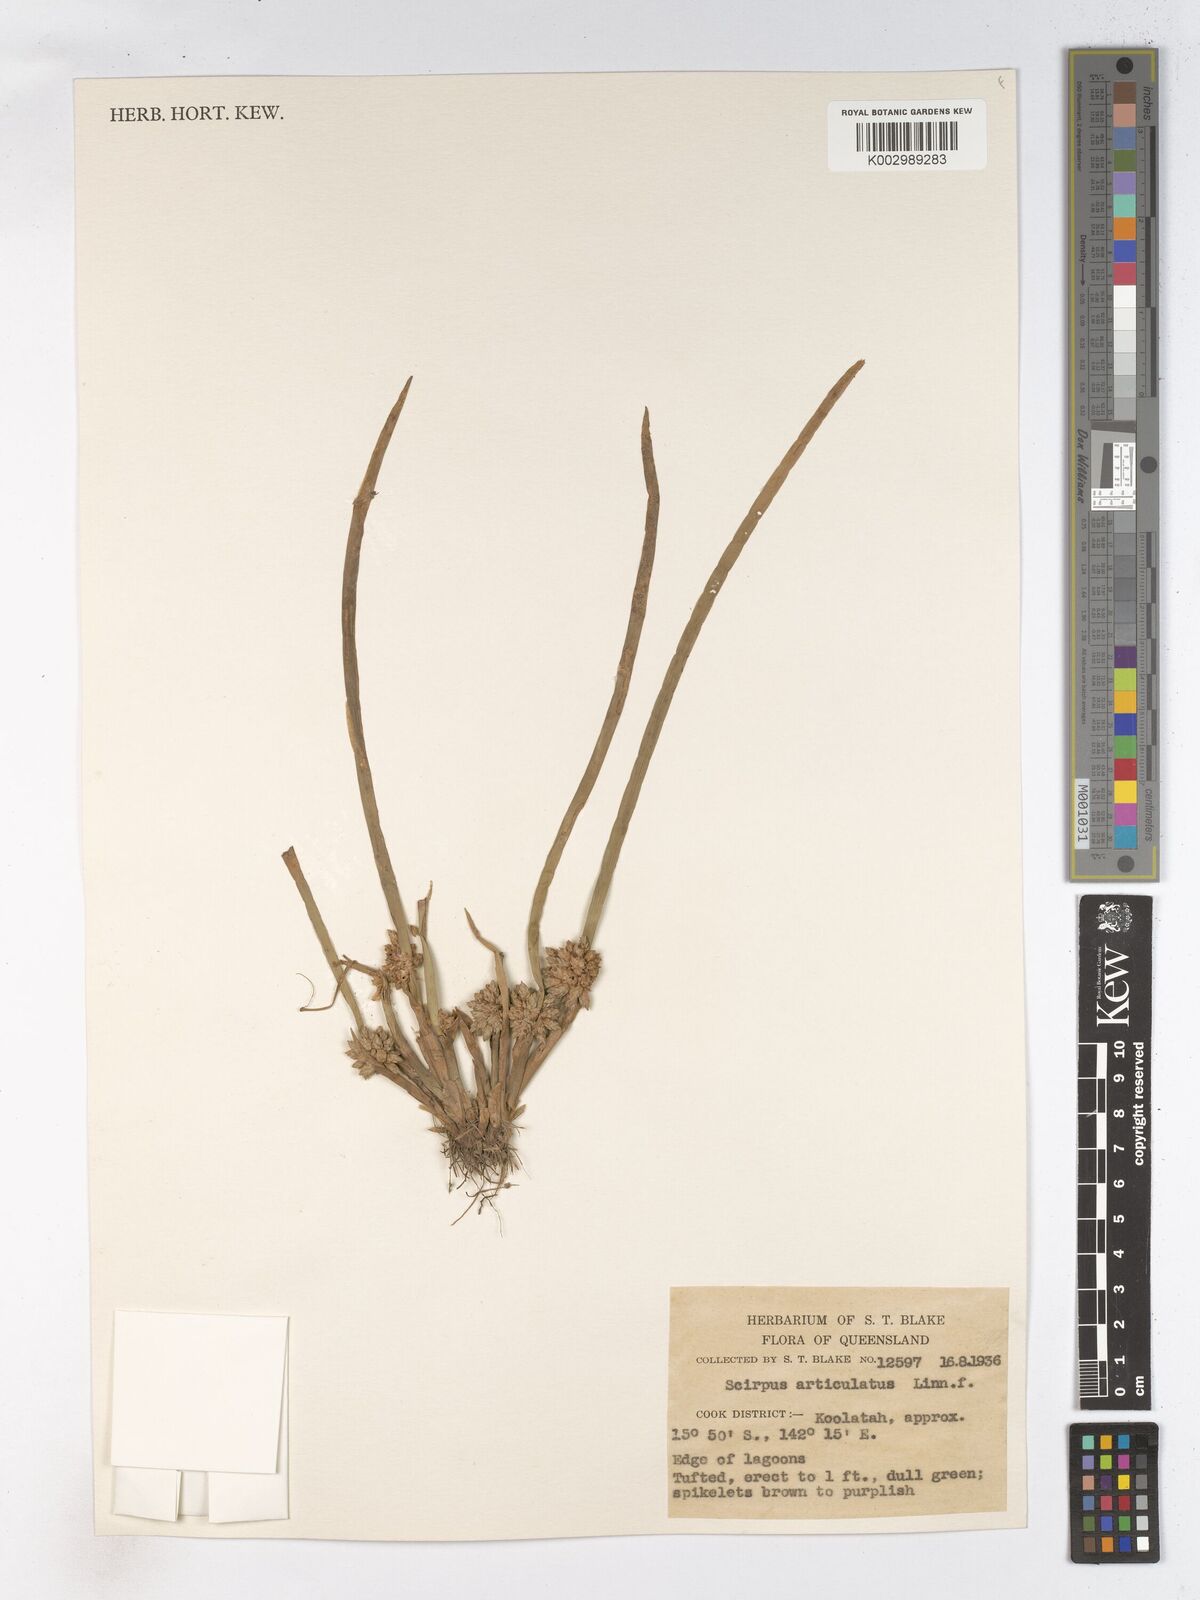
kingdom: Plantae
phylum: Tracheophyta
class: Liliopsida
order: Poales
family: Cyperaceae
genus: Schoenoplectiella
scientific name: Schoenoplectiella articulata
